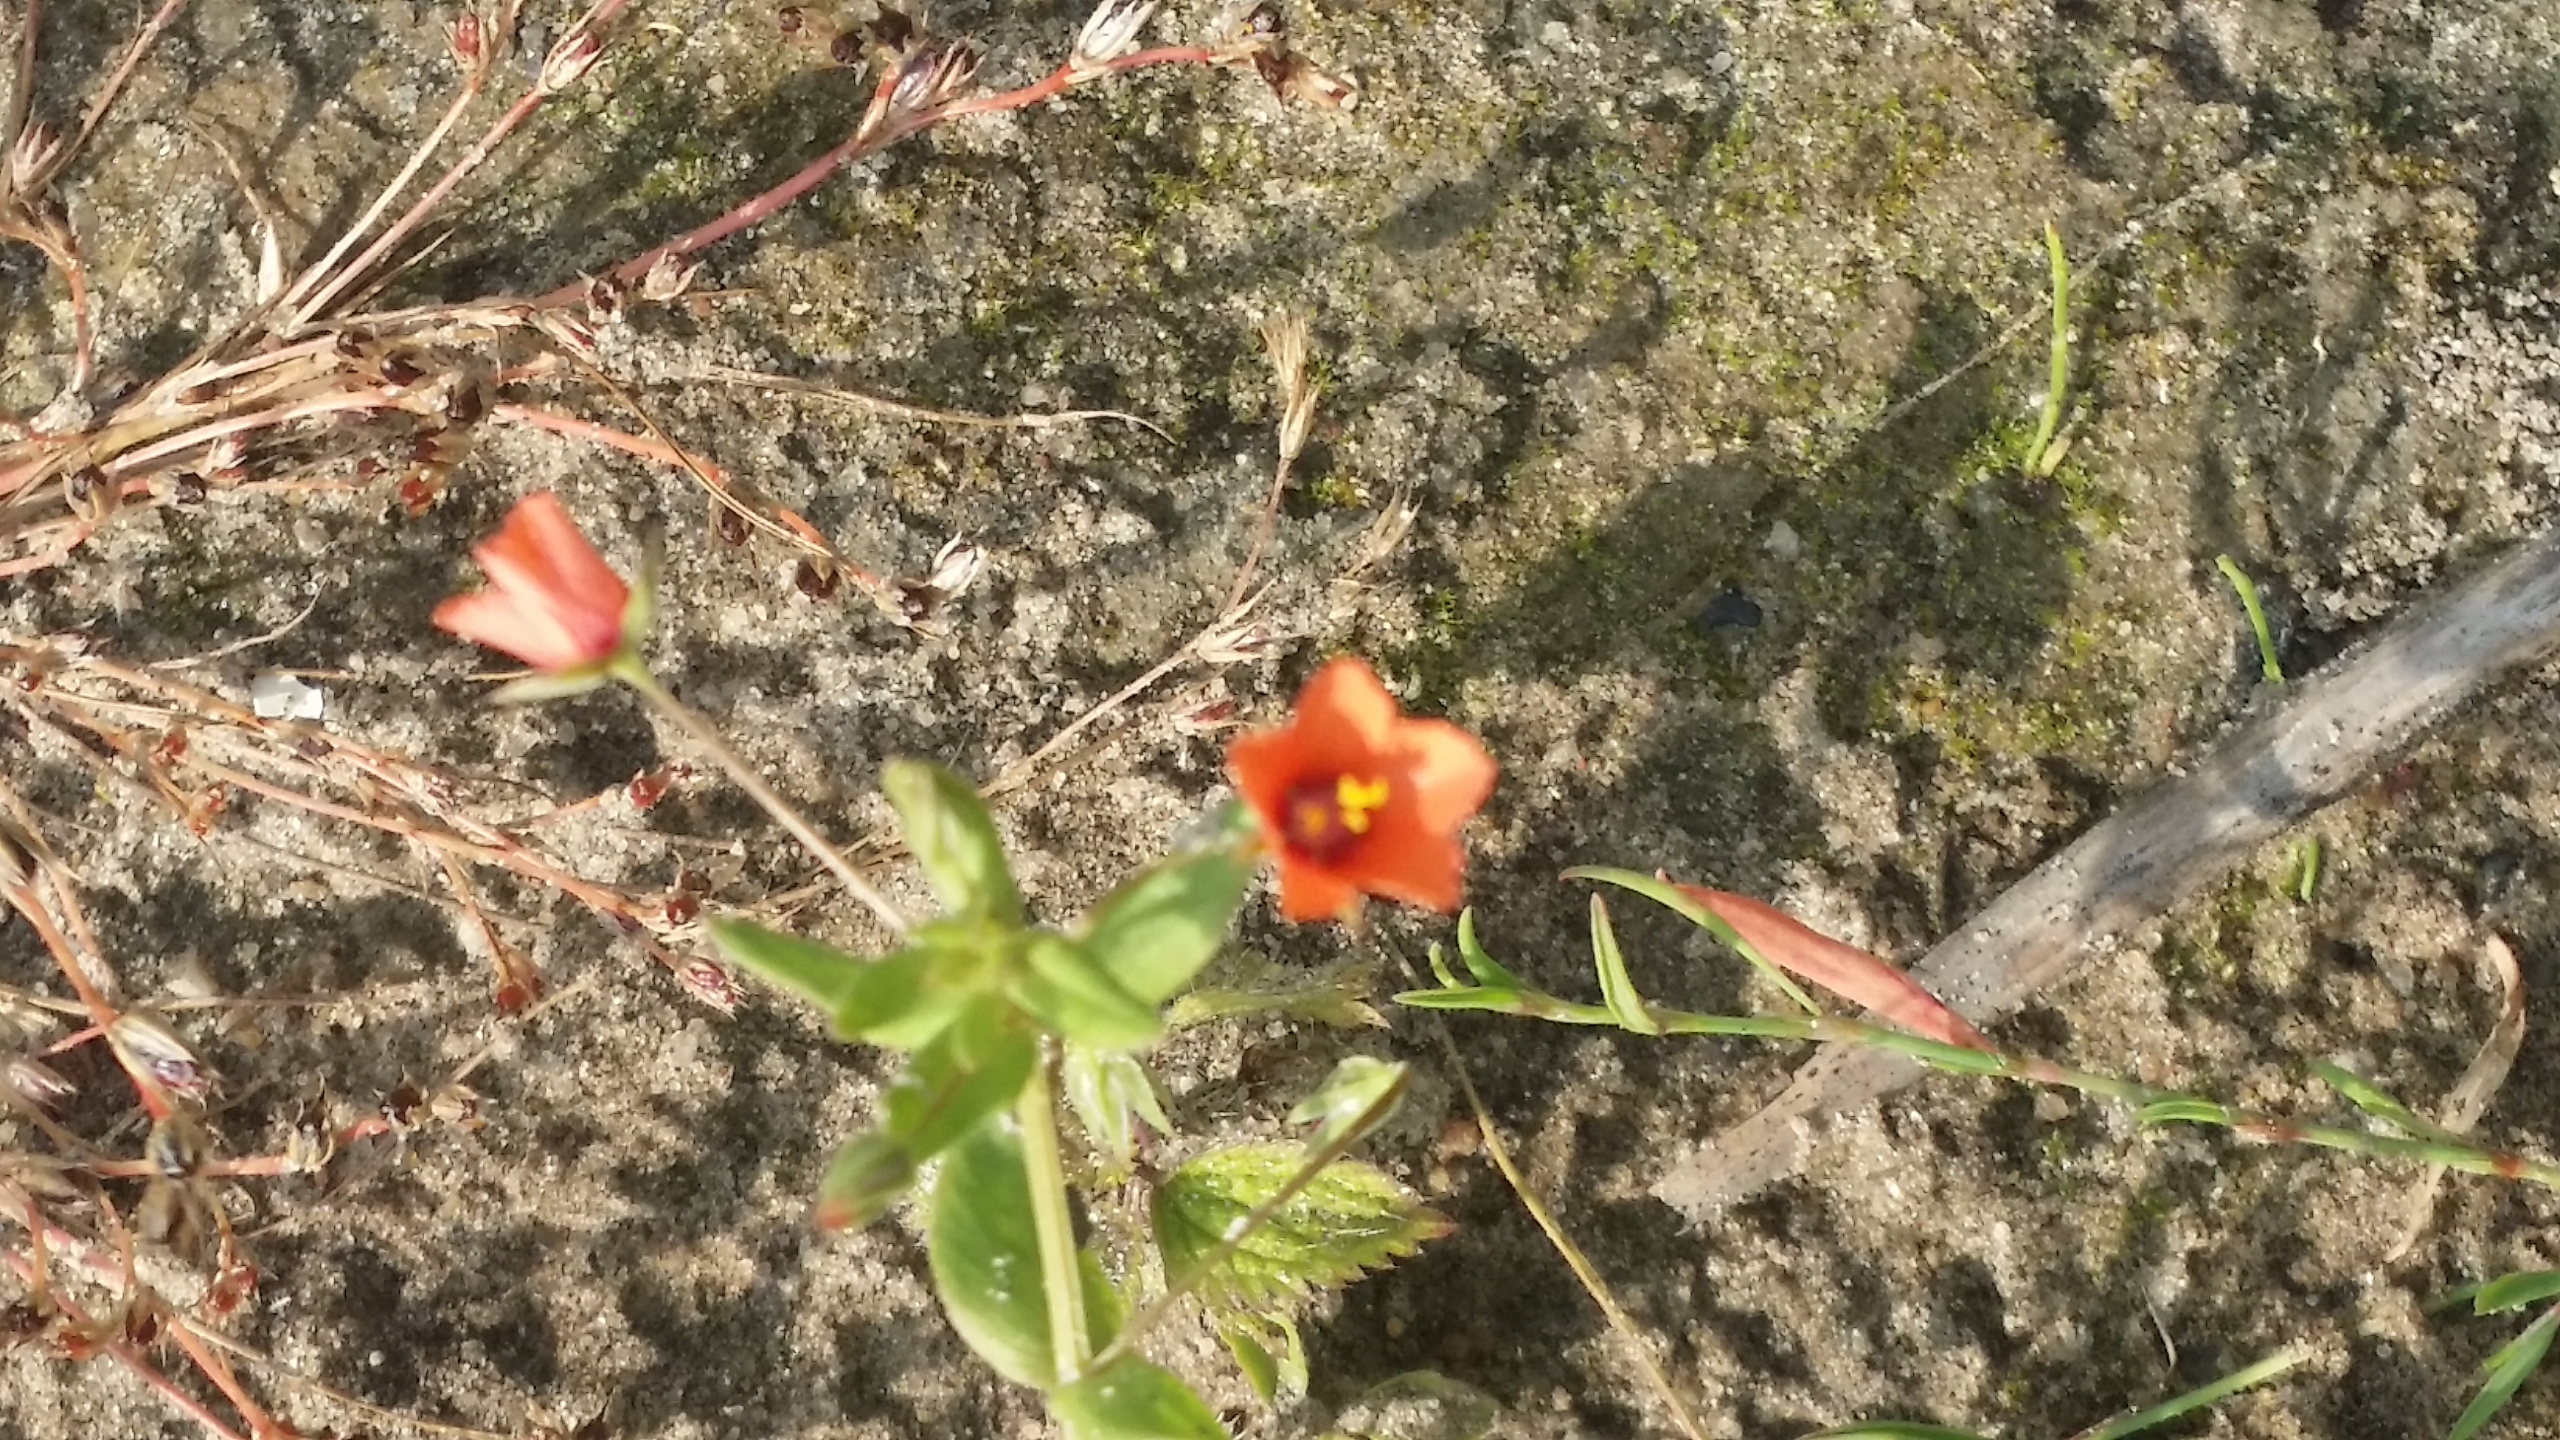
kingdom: Plantae
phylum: Tracheophyta
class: Magnoliopsida
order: Ericales
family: Primulaceae
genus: Lysimachia
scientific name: Lysimachia arvensis
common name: Rød arve
